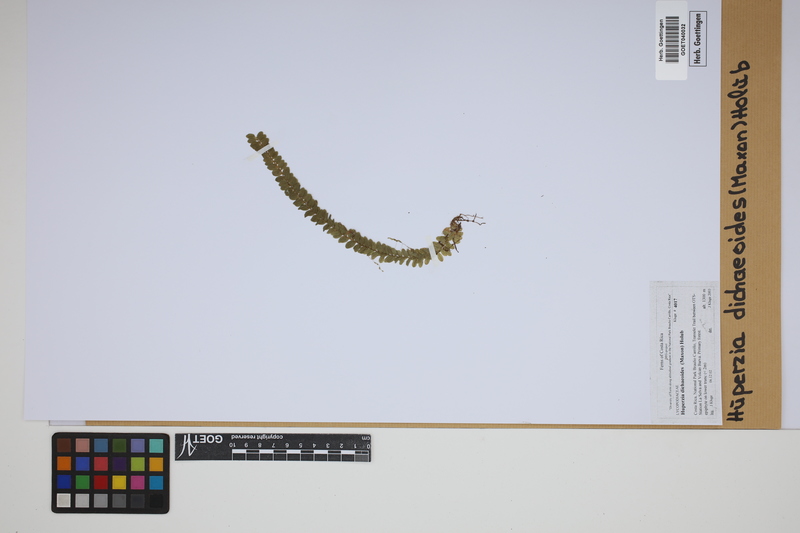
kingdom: Plantae
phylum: Tracheophyta
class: Lycopodiopsida
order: Lycopodiales
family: Lycopodiaceae
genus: Phlegmariurus
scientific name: Phlegmariurus dichaeoides
